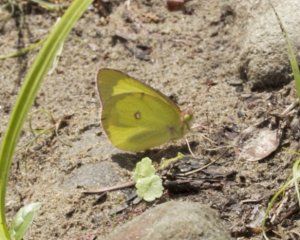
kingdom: Animalia
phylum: Arthropoda
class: Insecta
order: Lepidoptera
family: Pieridae
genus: Colias
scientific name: Colias interior
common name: Pink-edged Sulphur
